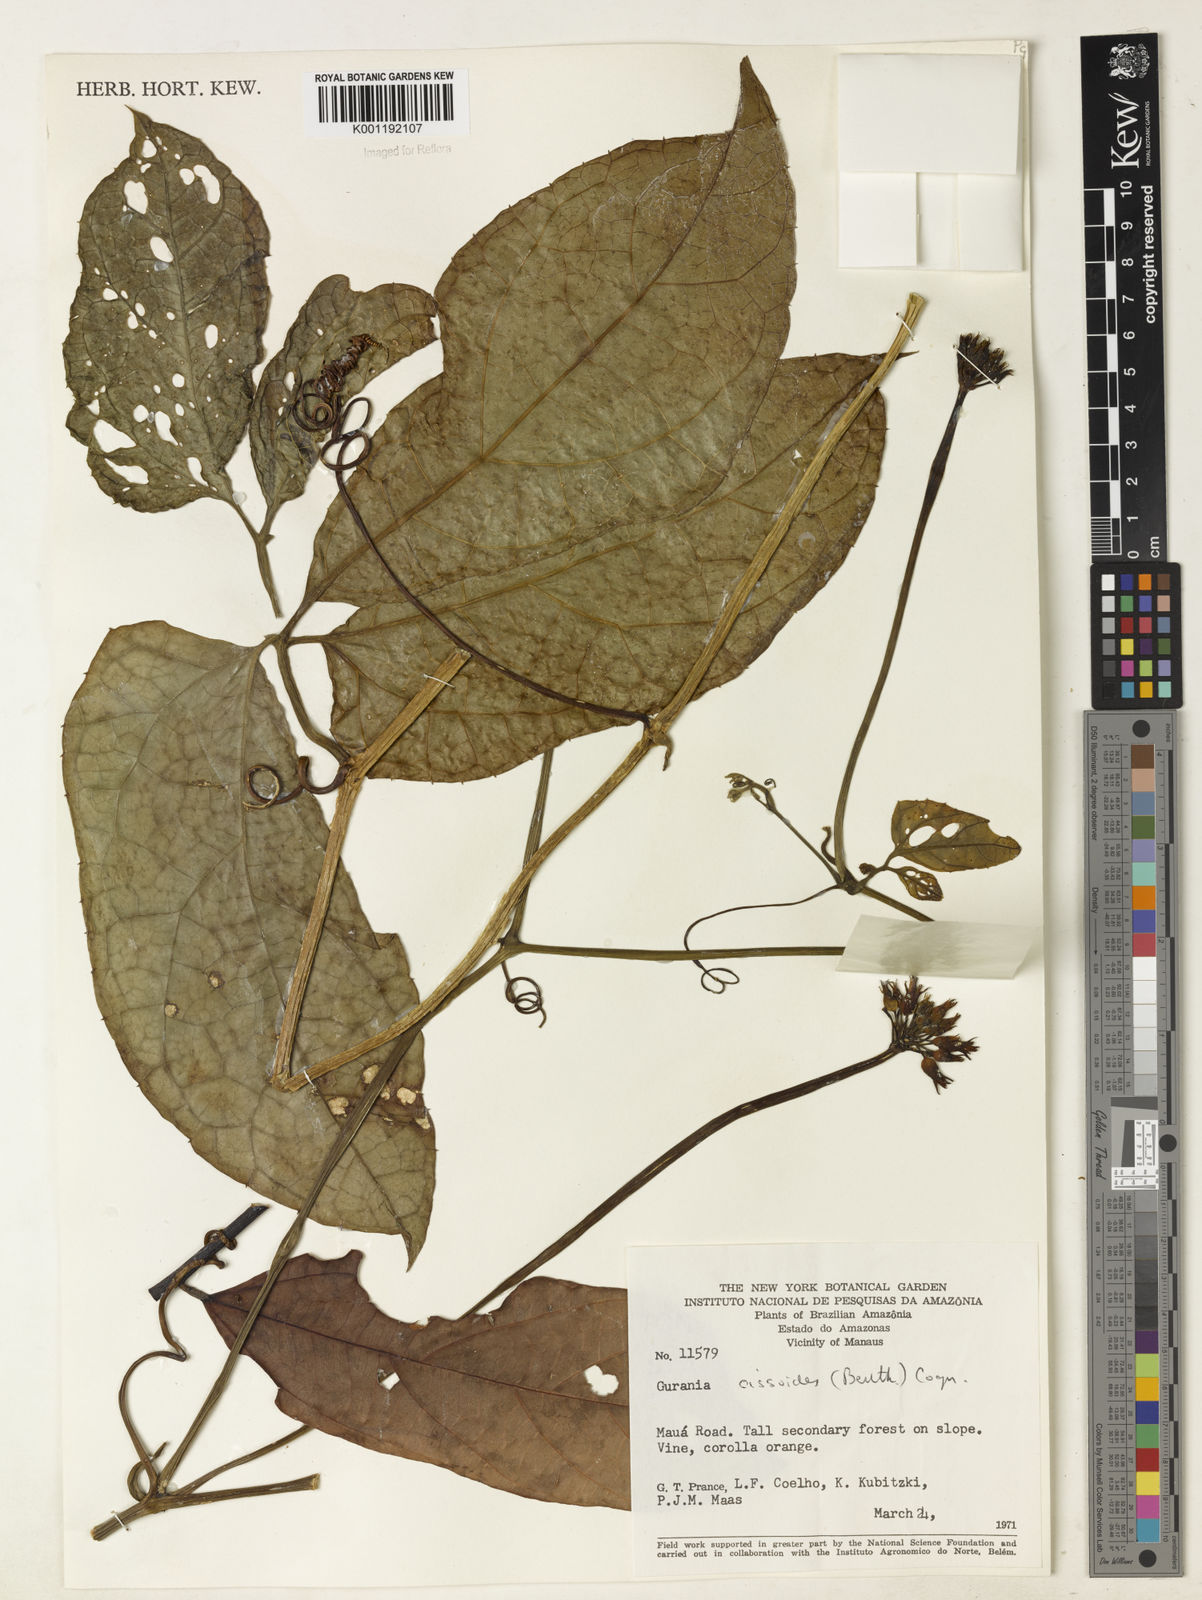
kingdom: Plantae
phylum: Tracheophyta
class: Magnoliopsida
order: Cucurbitales
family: Cucurbitaceae
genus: Gurania
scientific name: Gurania bignoniacea
